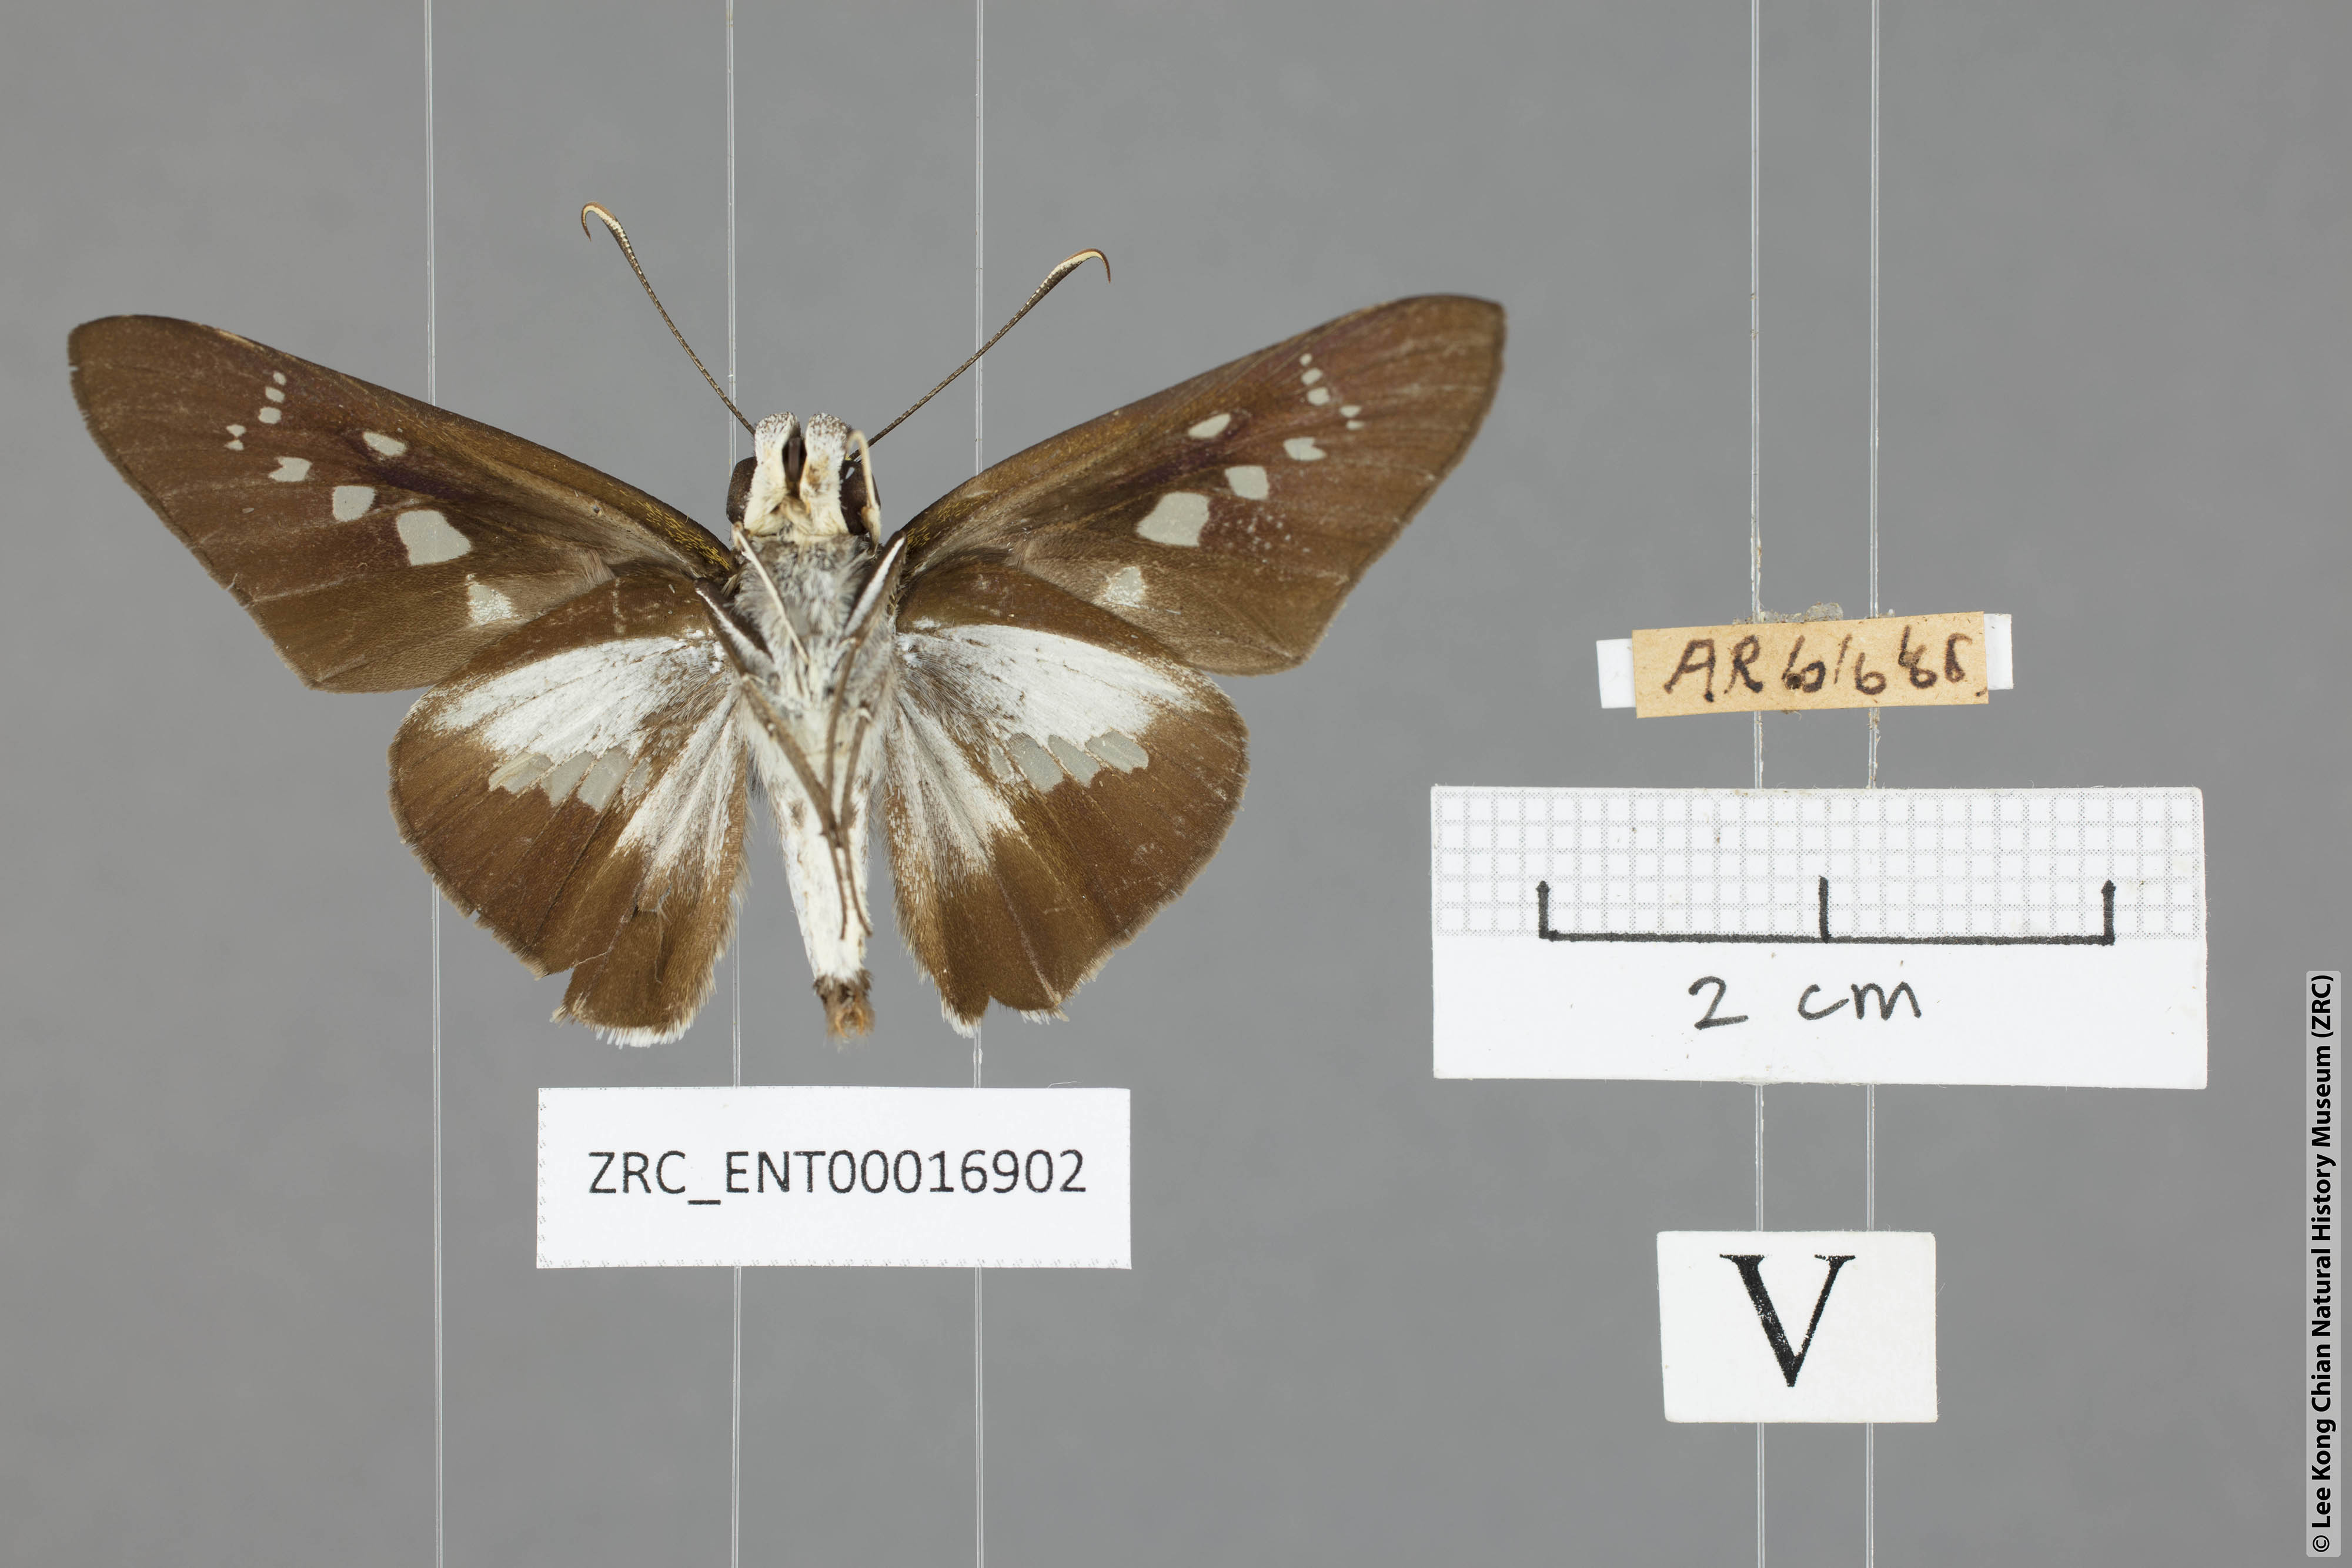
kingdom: Animalia
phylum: Arthropoda
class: Insecta
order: Lepidoptera
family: Hesperiidae
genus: Eetion
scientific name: Eetion elia
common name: White spotted palmer
